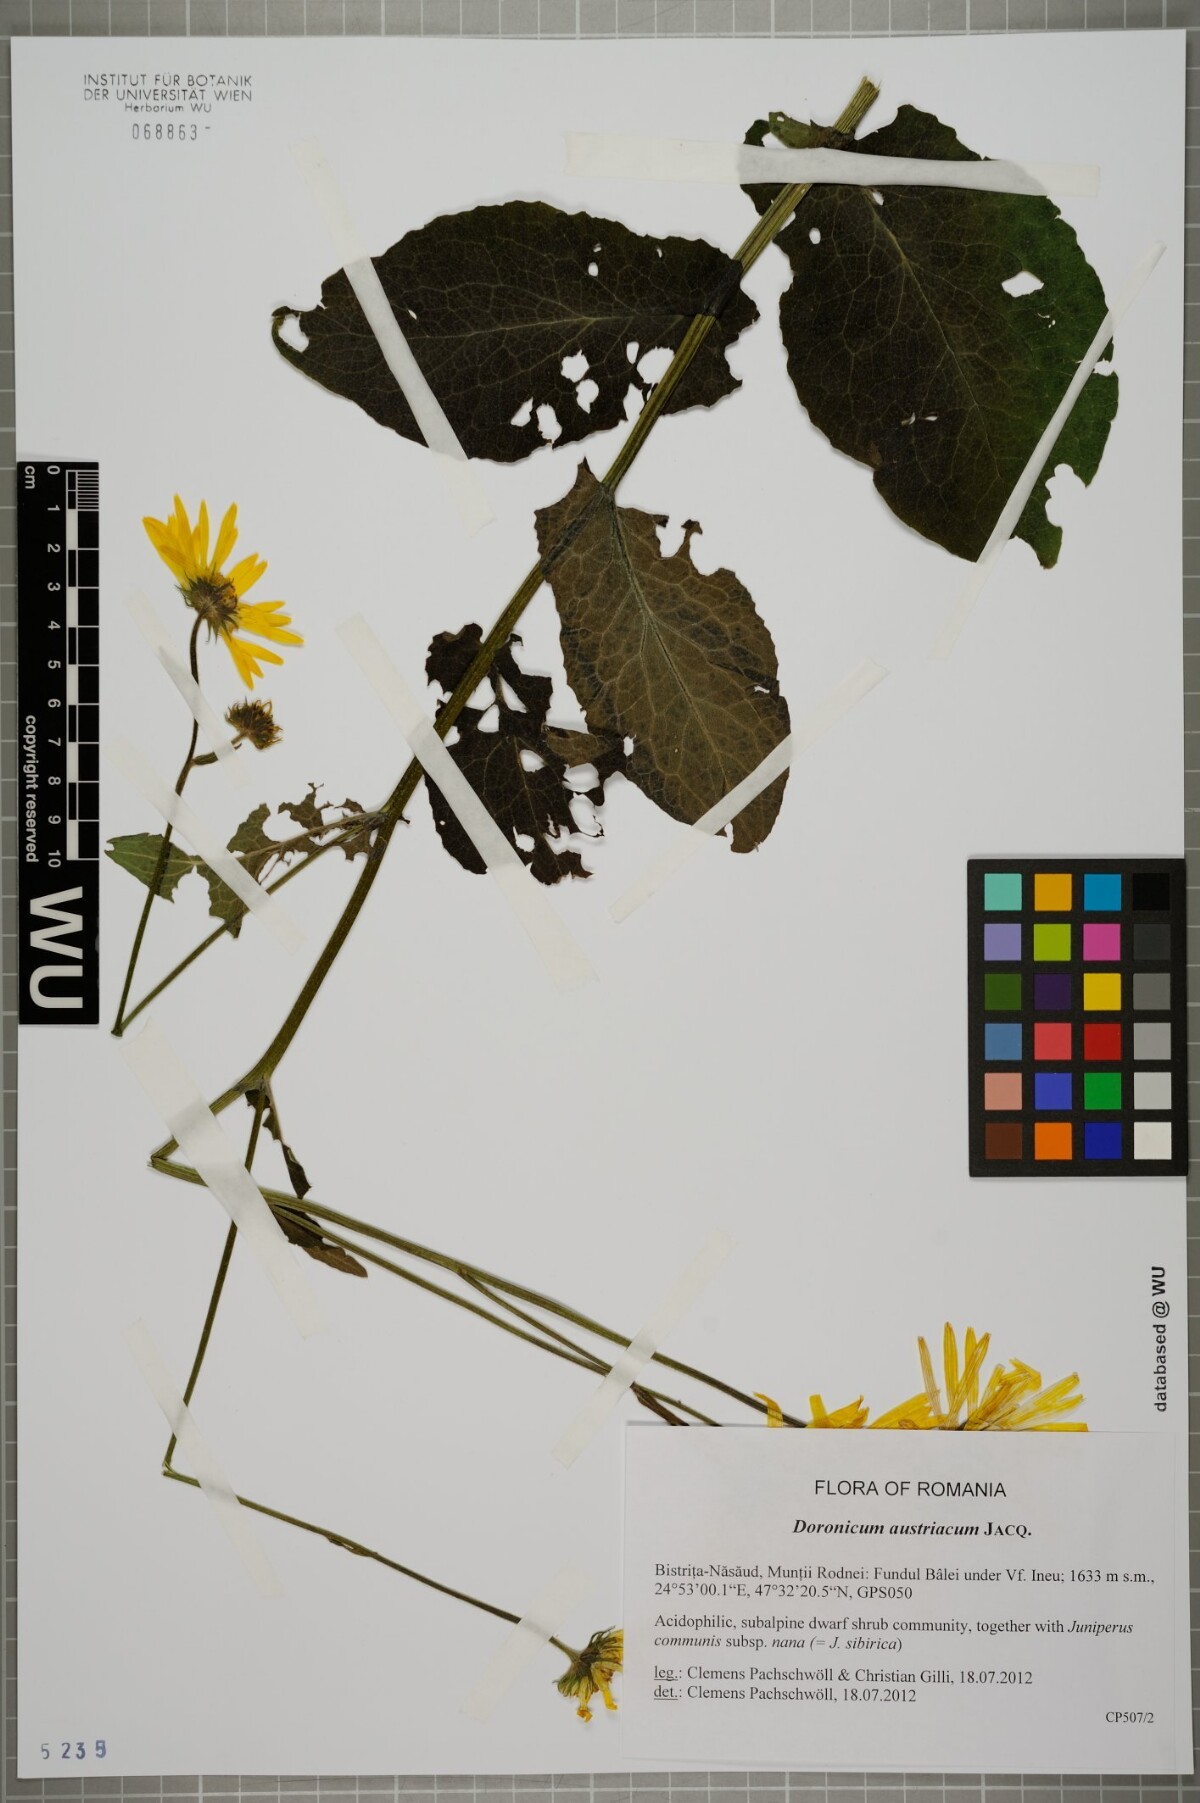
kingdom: Plantae
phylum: Tracheophyta
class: Magnoliopsida
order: Asterales
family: Asteraceae
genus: Doronicum
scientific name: Doronicum austriacum
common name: Austrian leopard's-bane
